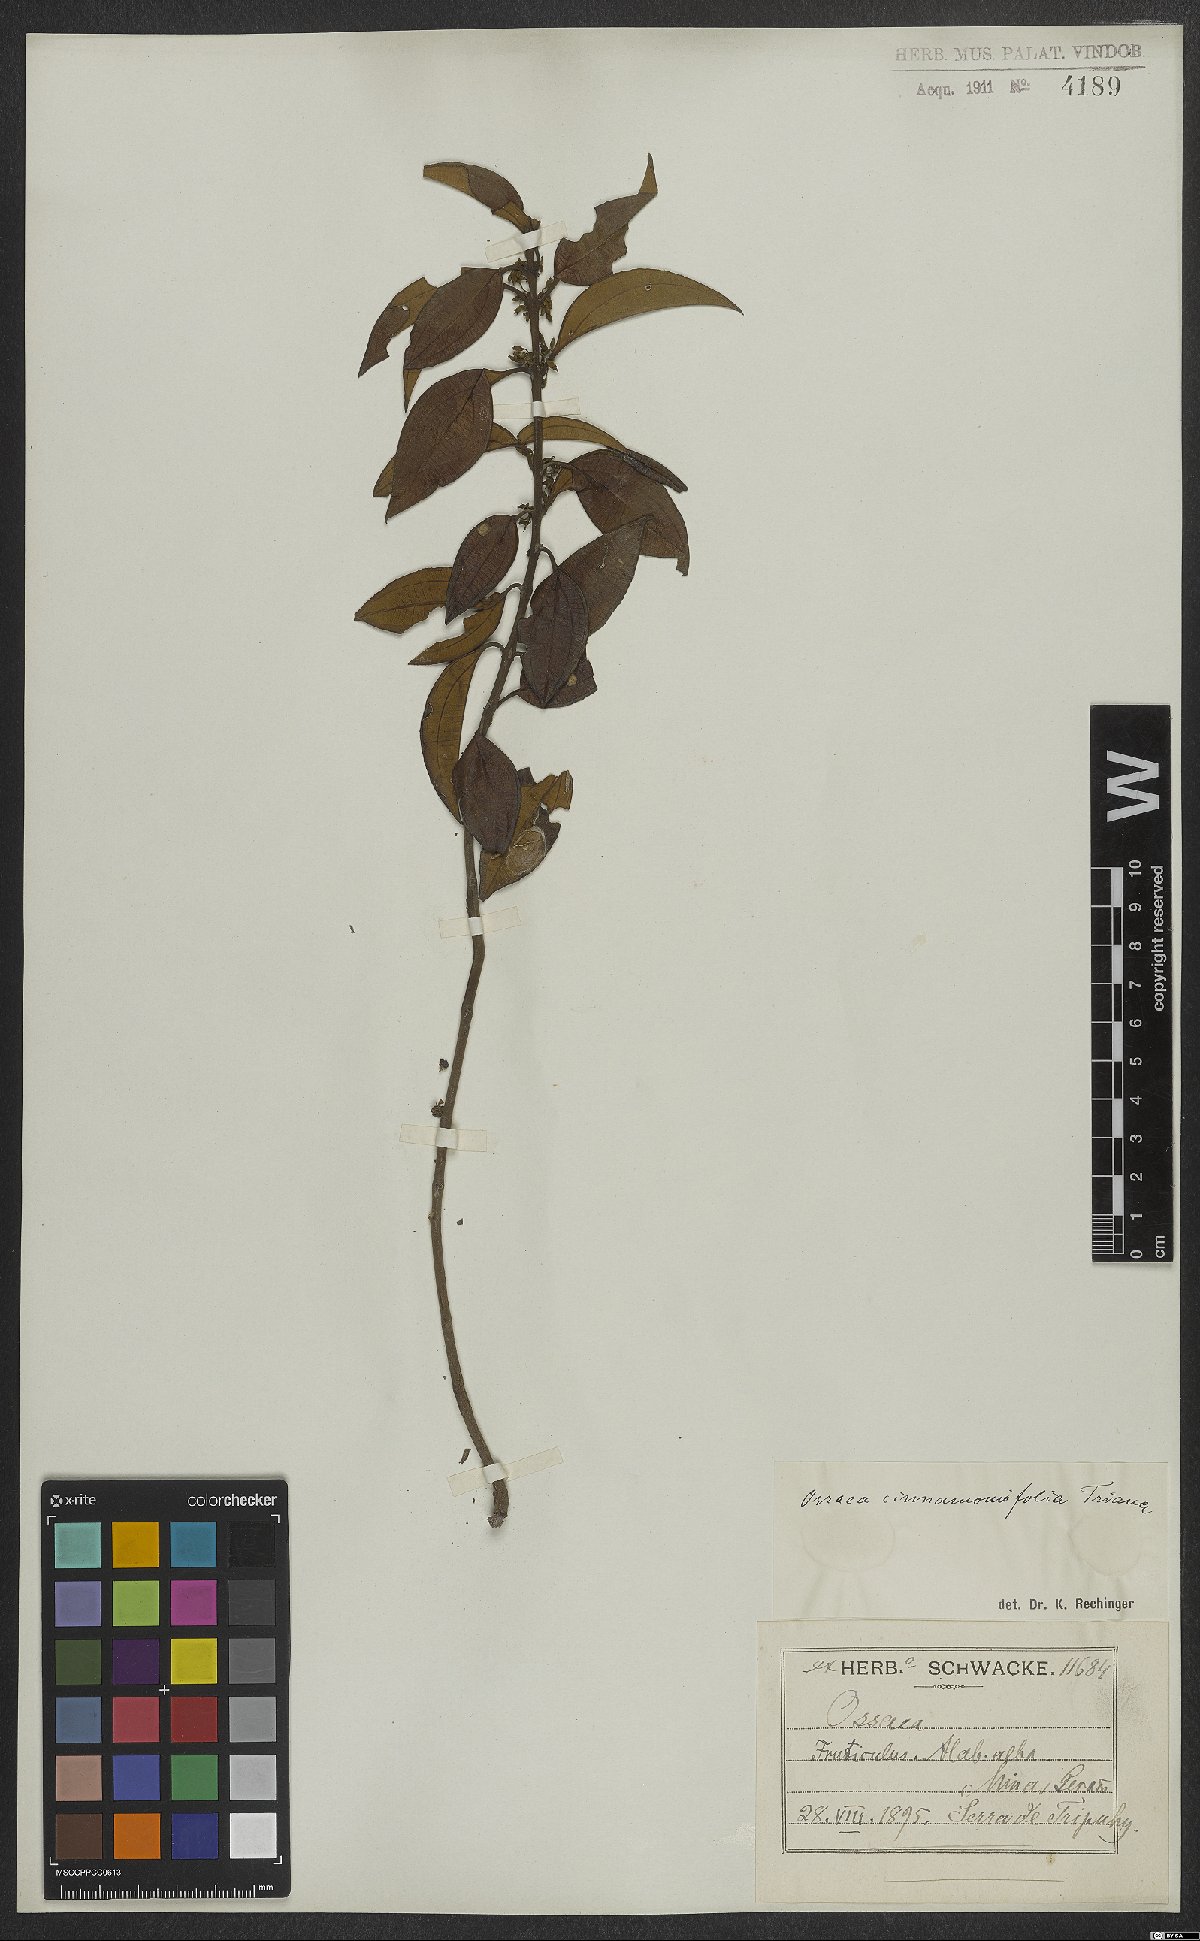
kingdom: Plantae
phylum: Tracheophyta
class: Magnoliopsida
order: Myrtales
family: Melastomataceae
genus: Miconia
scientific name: Miconia leacinnamomifolia
